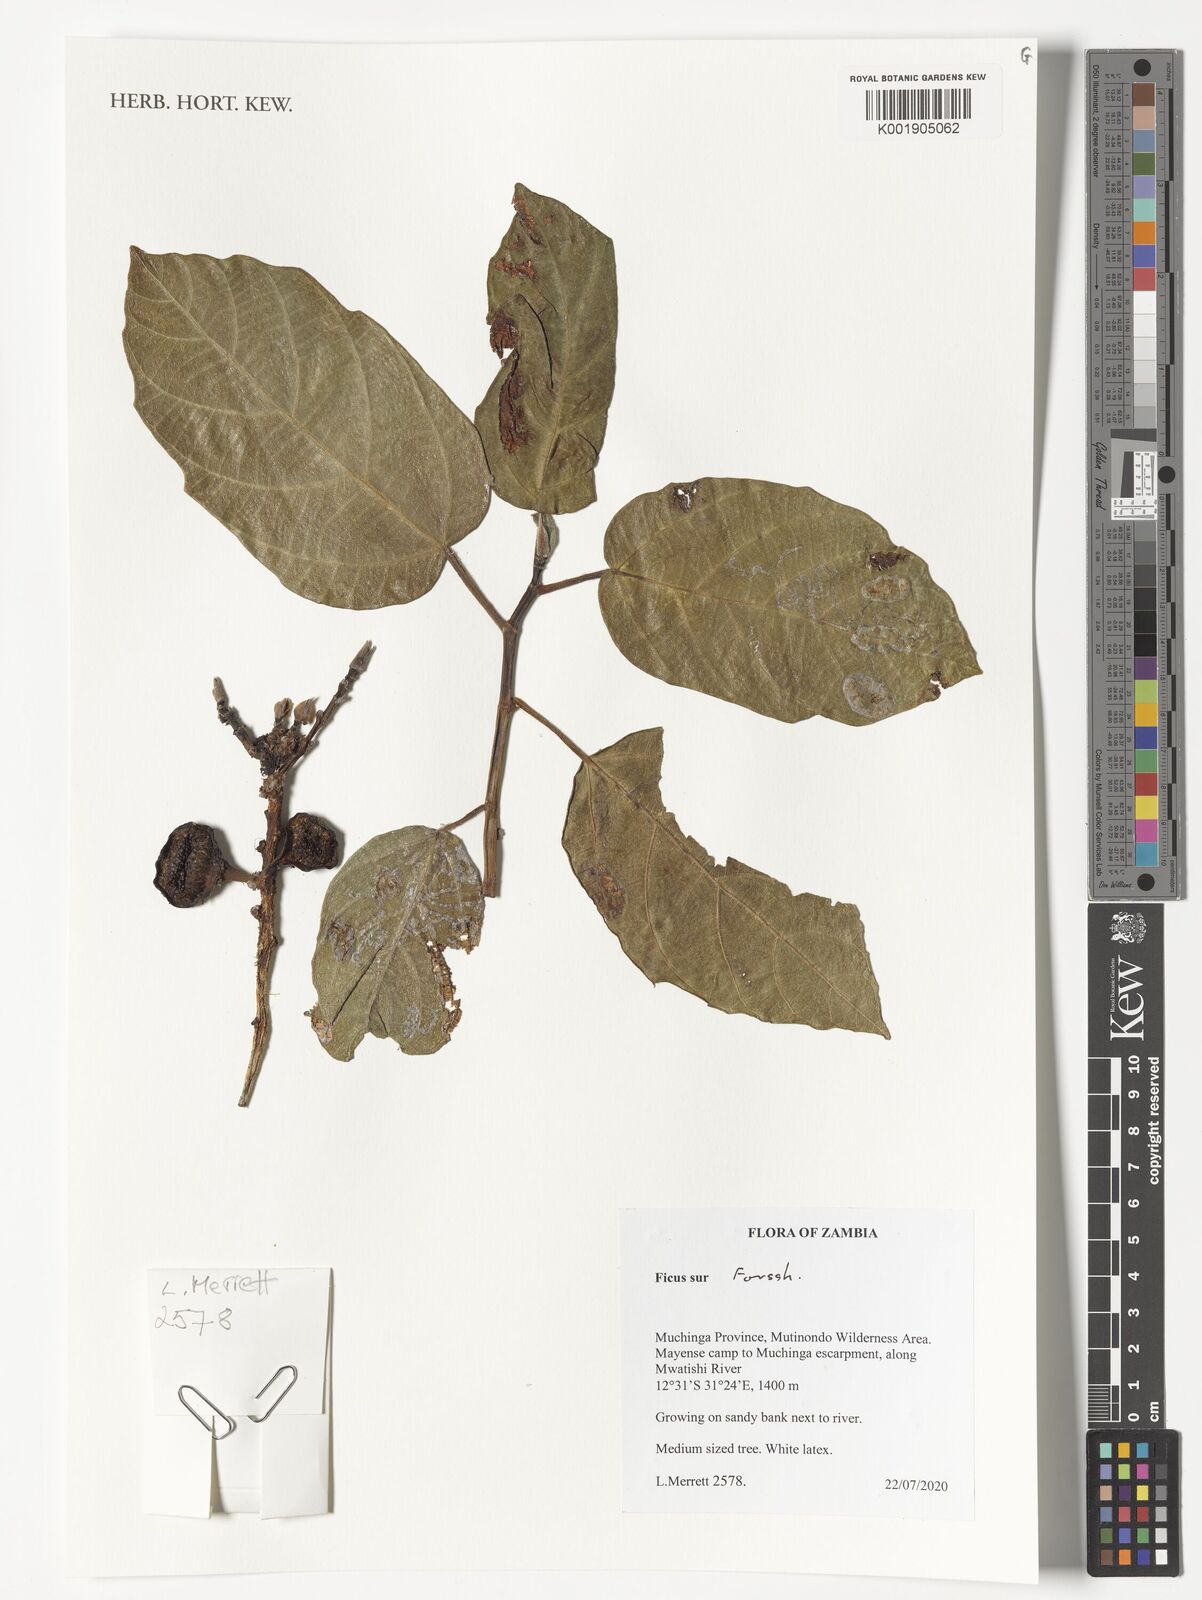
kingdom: Plantae
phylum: Tracheophyta
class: Magnoliopsida
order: Rosales
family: Moraceae
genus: Ficus
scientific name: Ficus sur
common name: Cape fig
